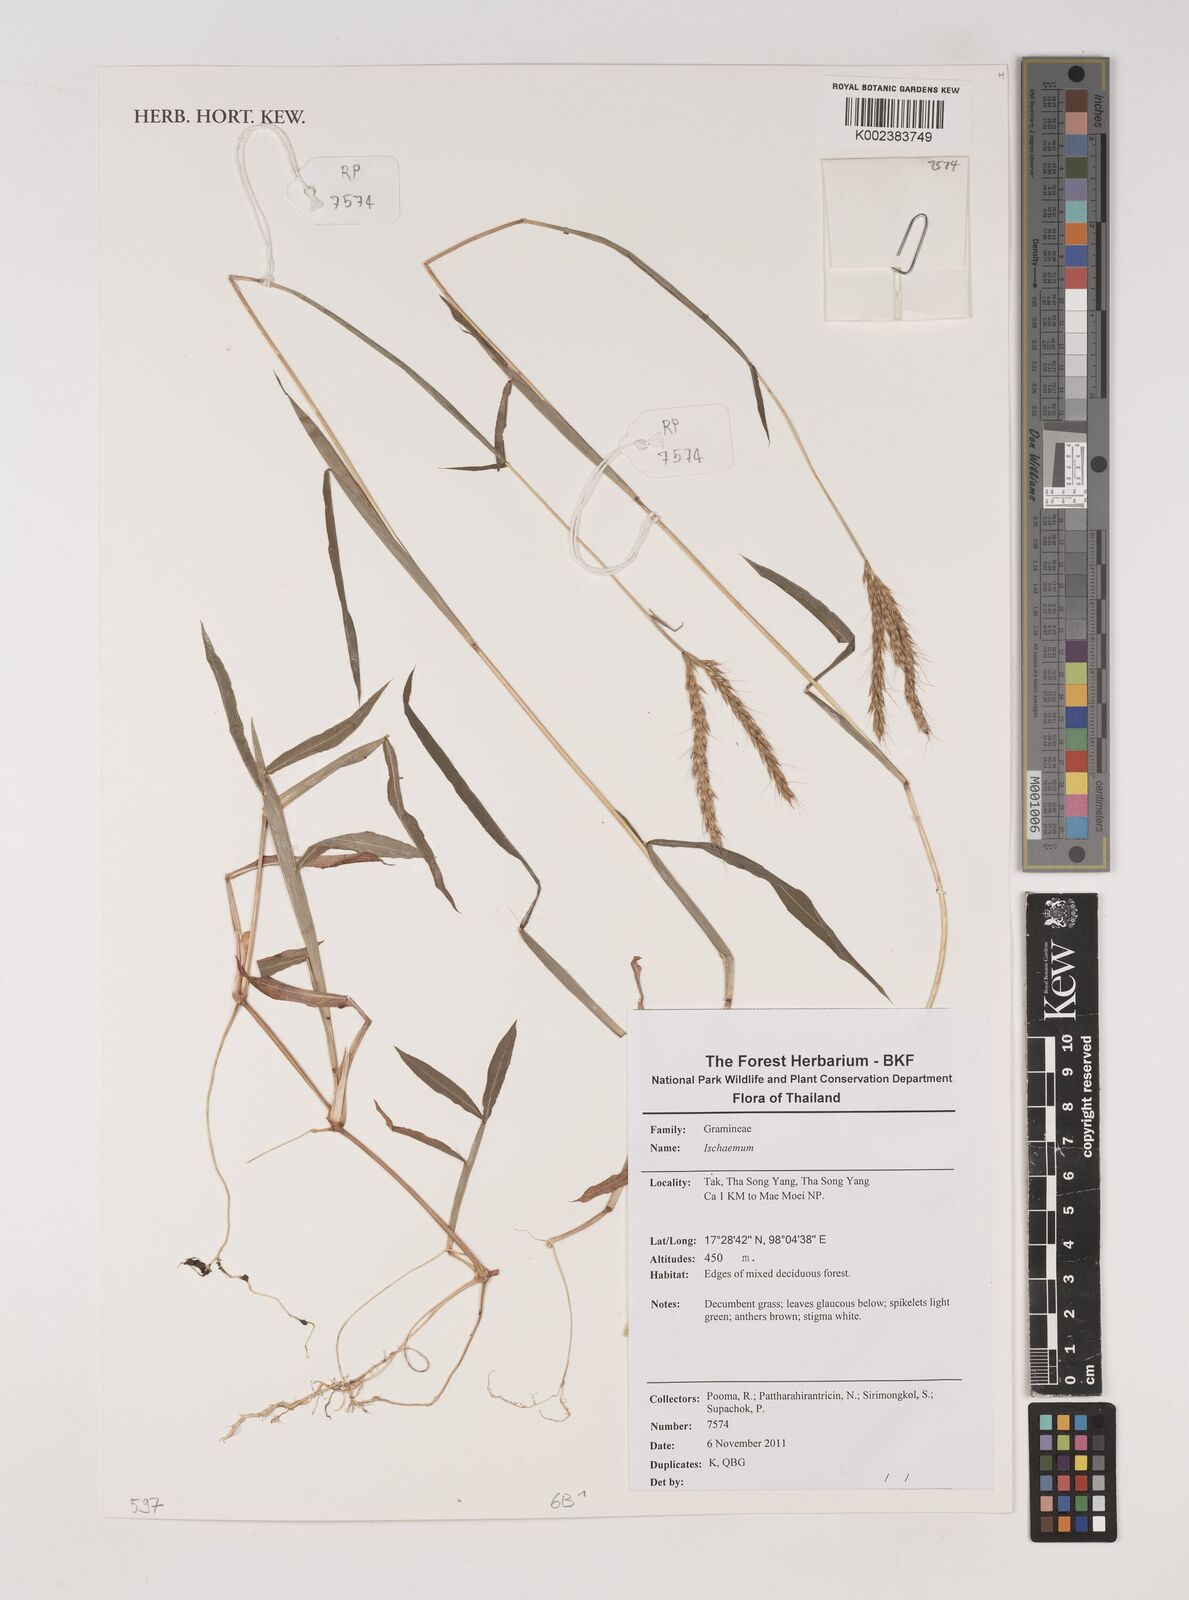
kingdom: Plantae
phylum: Tracheophyta
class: Liliopsida
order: Poales
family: Poaceae
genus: Ischaemum
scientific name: Ischaemum
